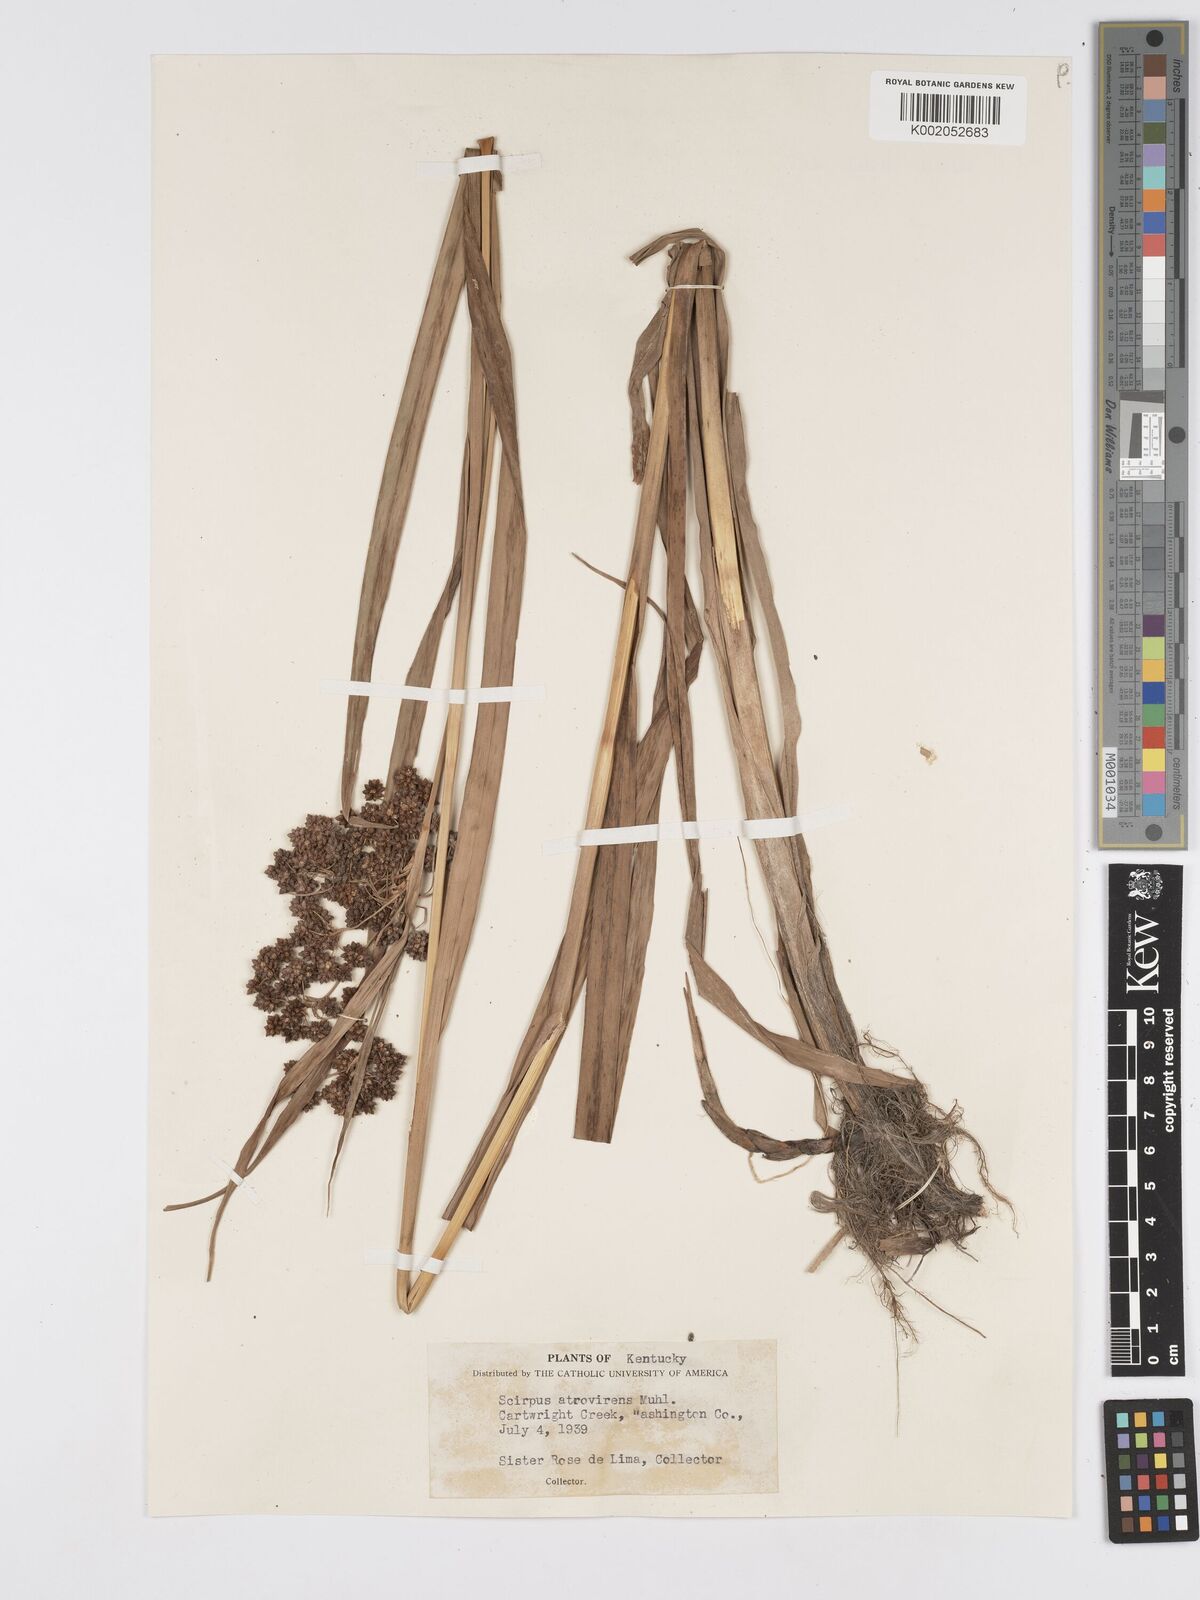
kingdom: Plantae
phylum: Tracheophyta
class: Liliopsida
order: Poales
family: Cyperaceae
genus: Scirpus
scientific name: Scirpus atrovirens
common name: Black bulrush
